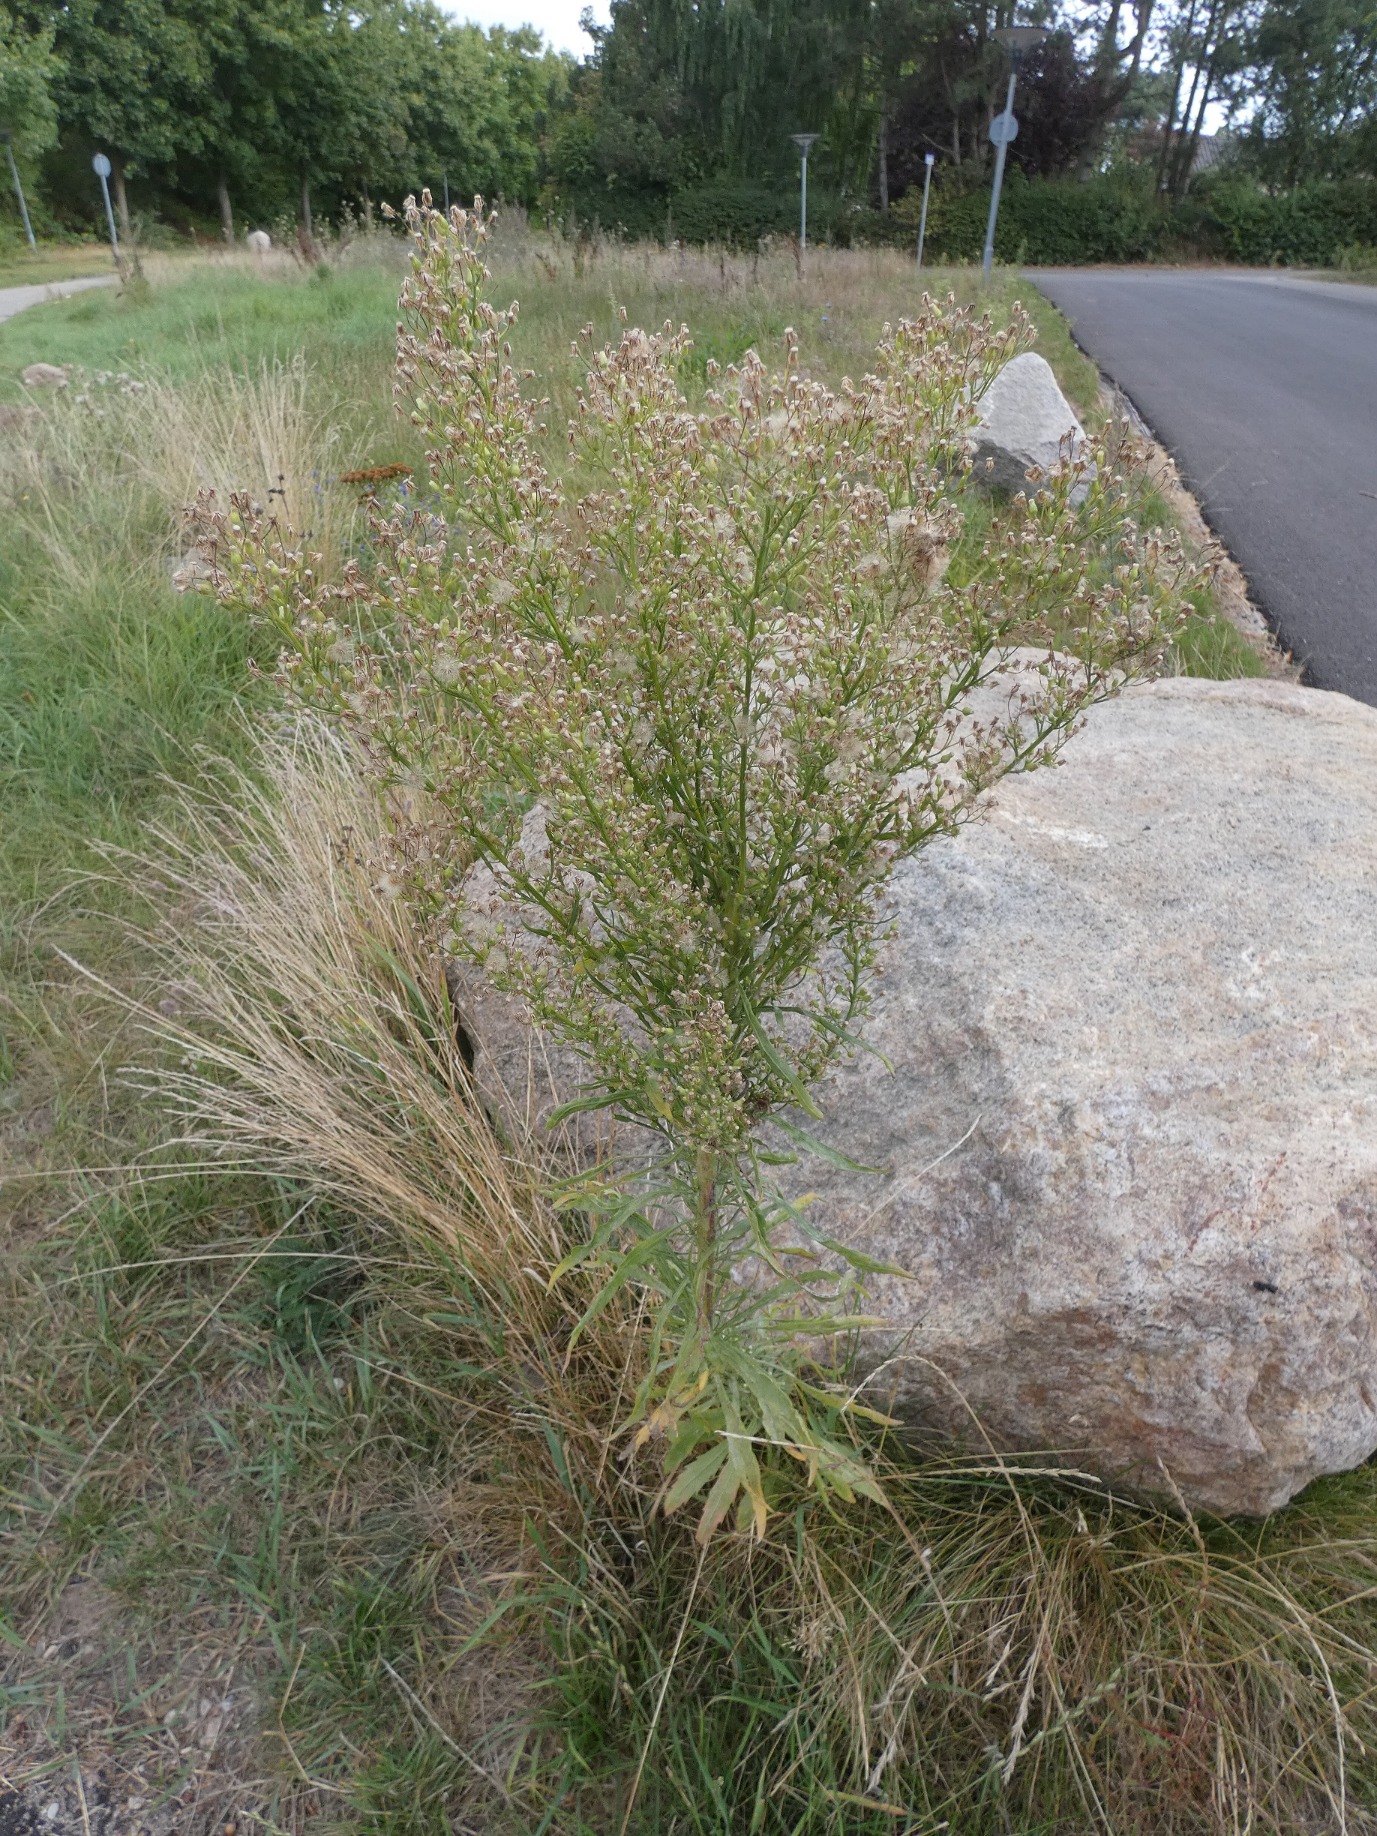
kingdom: Plantae
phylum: Tracheophyta
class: Magnoliopsida
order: Asterales
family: Asteraceae
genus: Erigeron
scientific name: Erigeron canadensis
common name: Kanadisk bakkestjerne
